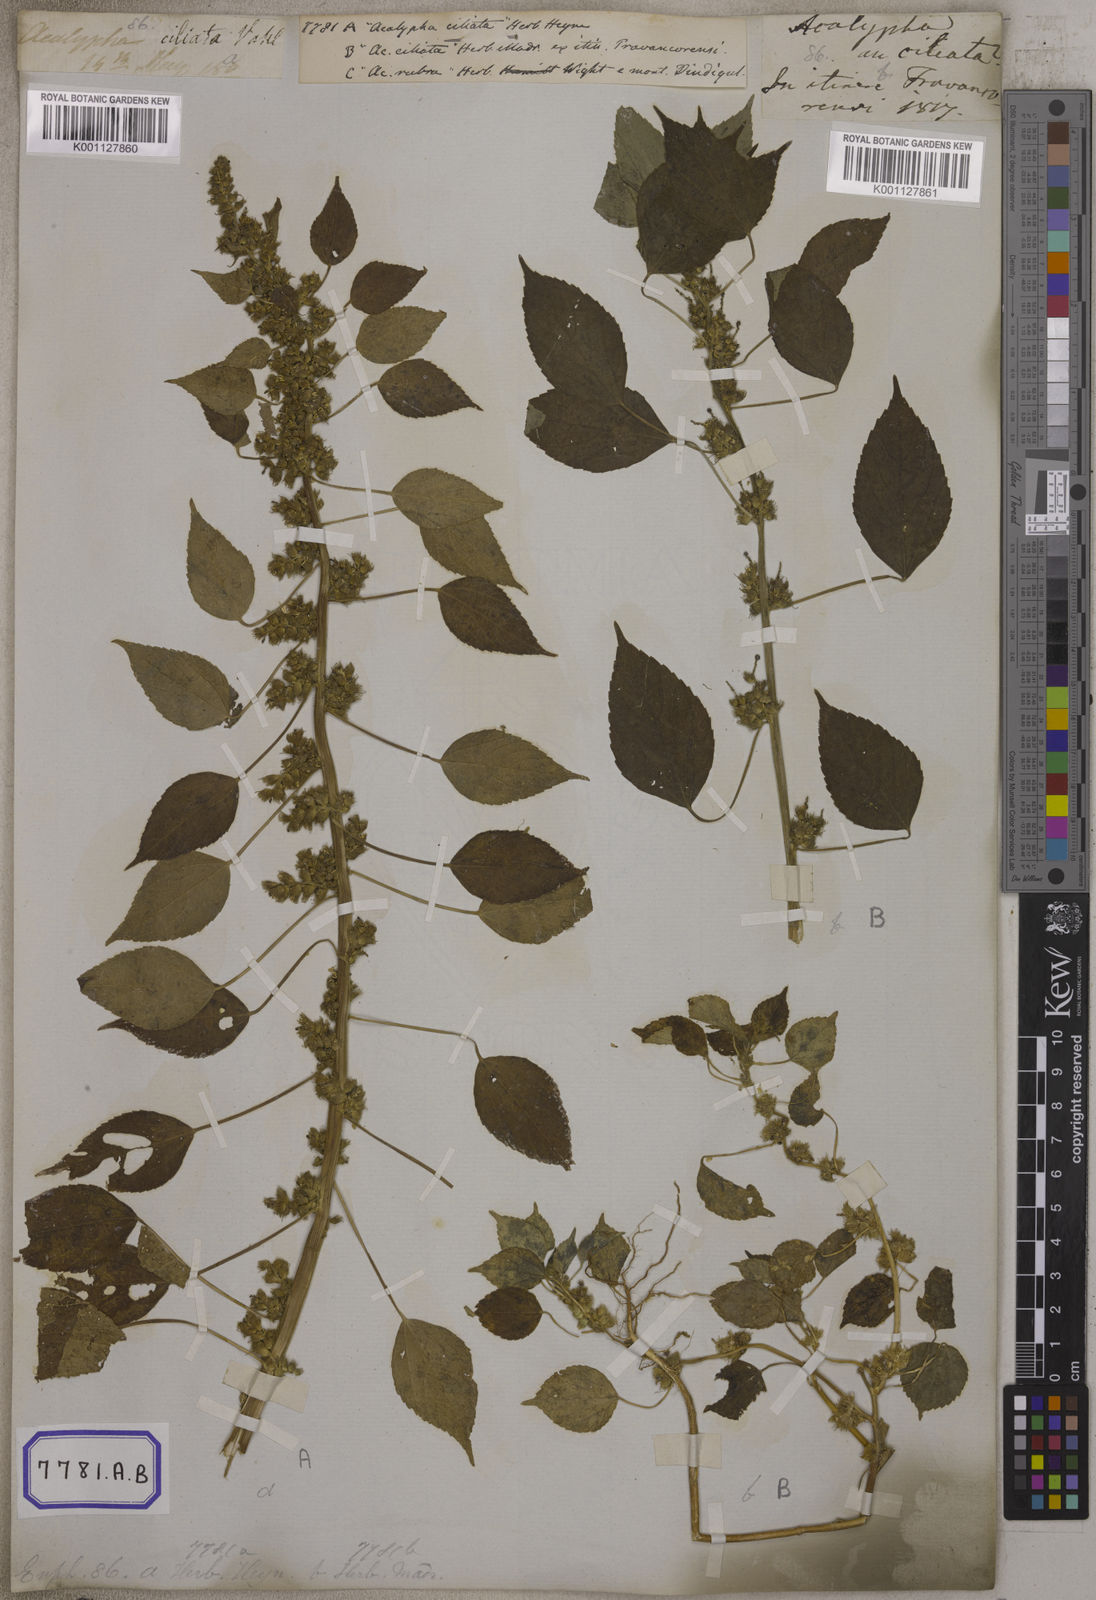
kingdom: Plantae
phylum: Tracheophyta
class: Magnoliopsida
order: Malpighiales
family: Euphorbiaceae
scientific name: Euphorbiaceae
